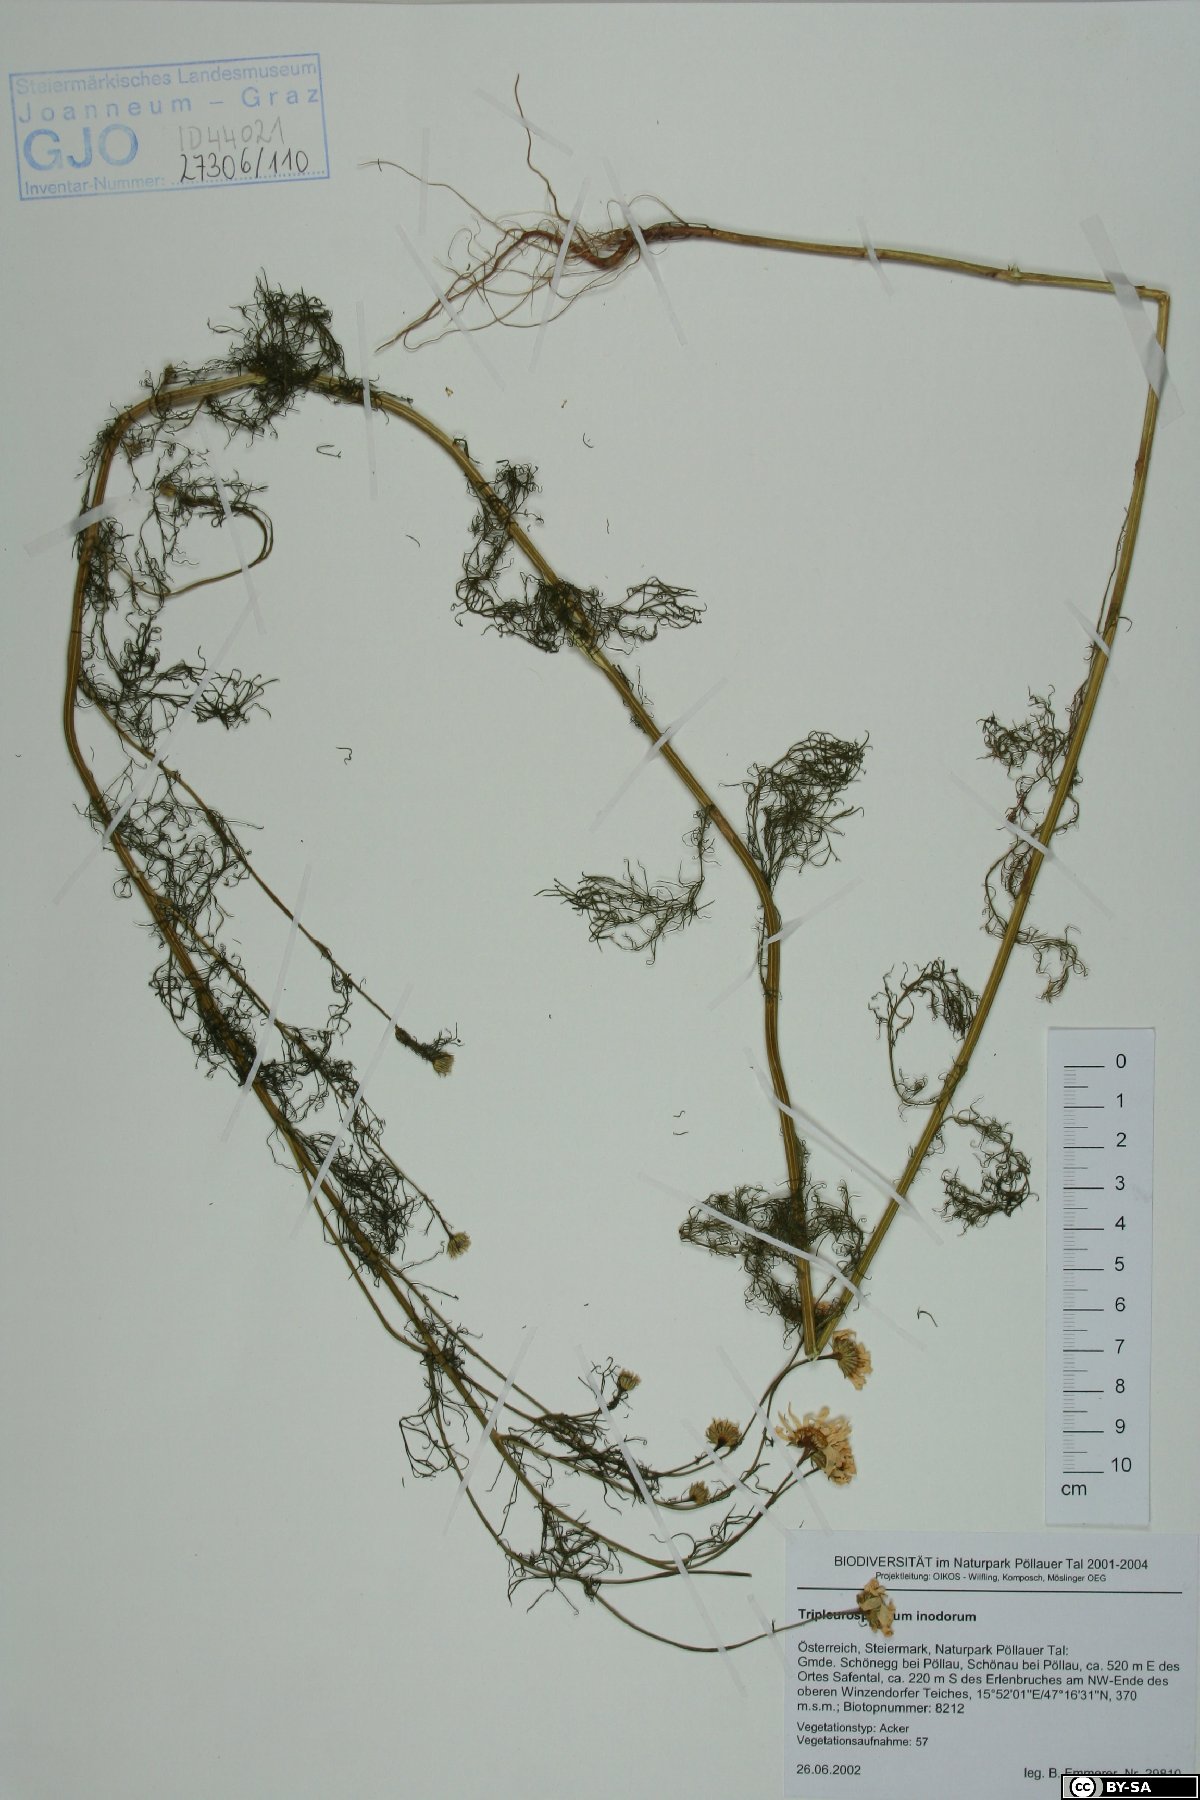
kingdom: Plantae
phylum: Tracheophyta
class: Magnoliopsida
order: Asterales
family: Asteraceae
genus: Tripleurospermum
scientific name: Tripleurospermum inodorum
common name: Scentless mayweed
